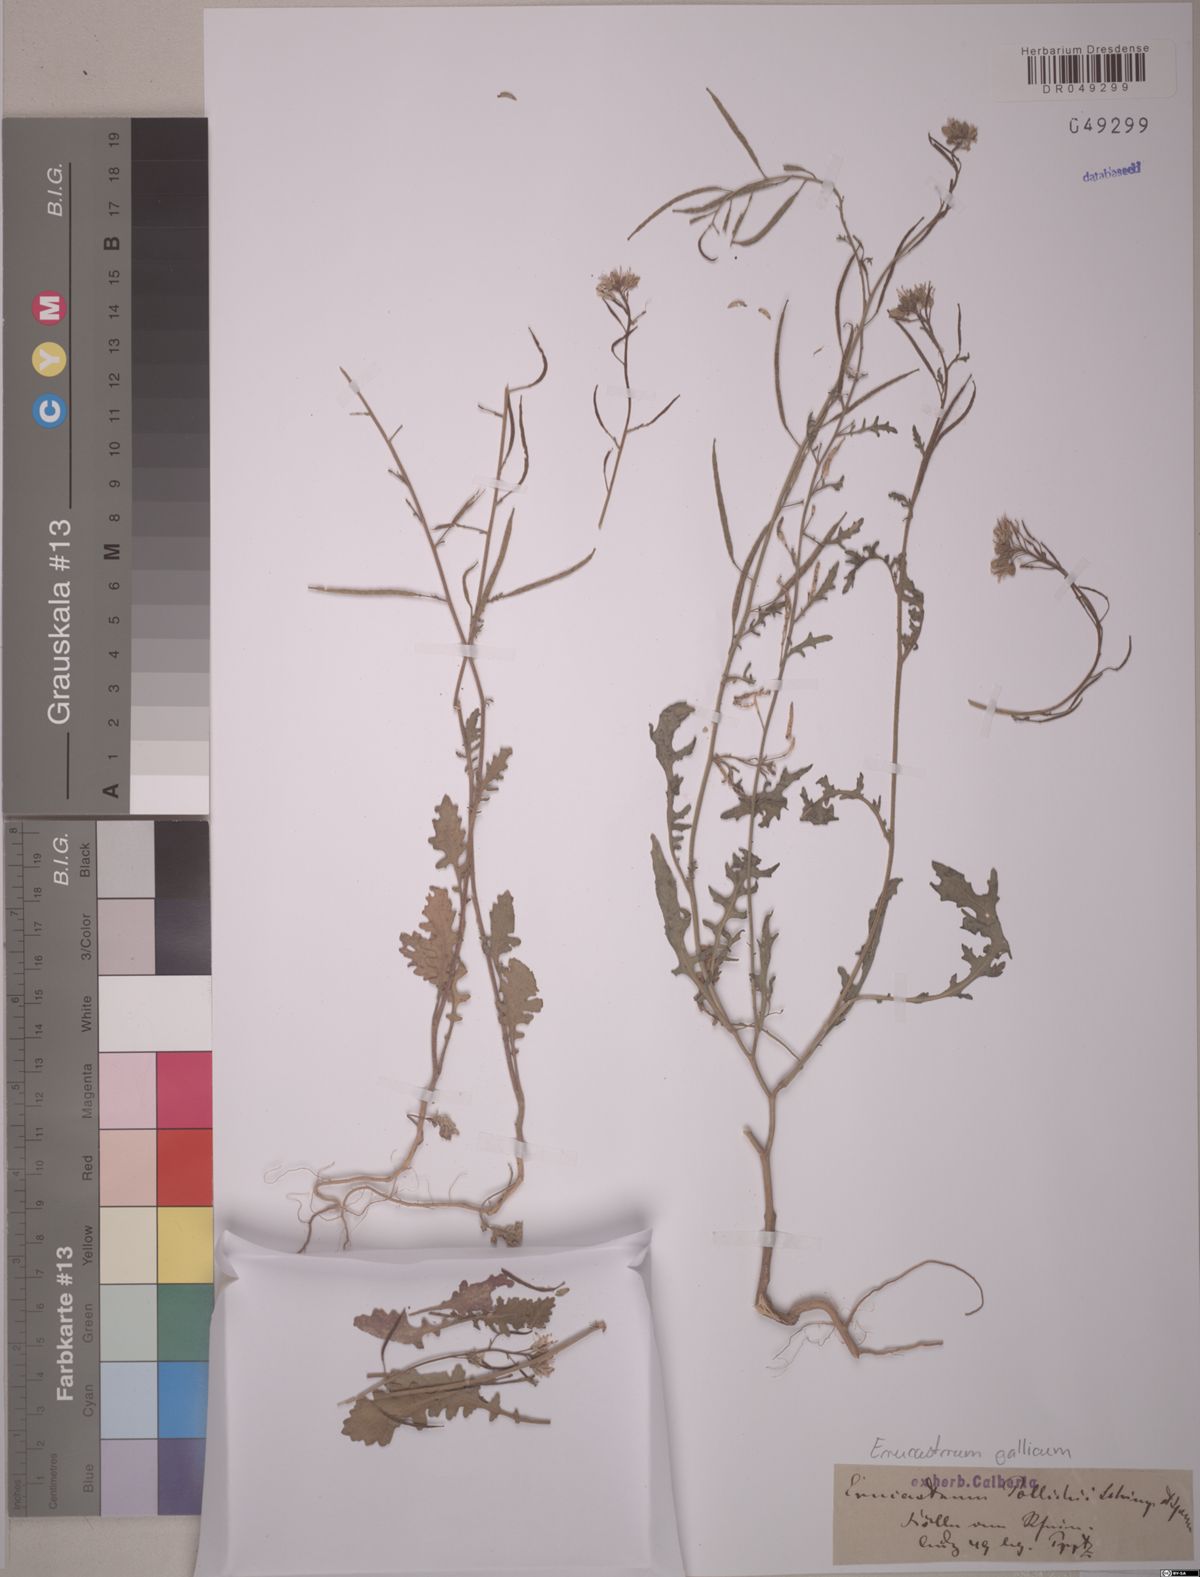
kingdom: Plantae
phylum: Tracheophyta
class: Magnoliopsida
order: Brassicales
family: Brassicaceae
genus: Erucastrum
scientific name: Erucastrum gallicum
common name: Hairy rocket
